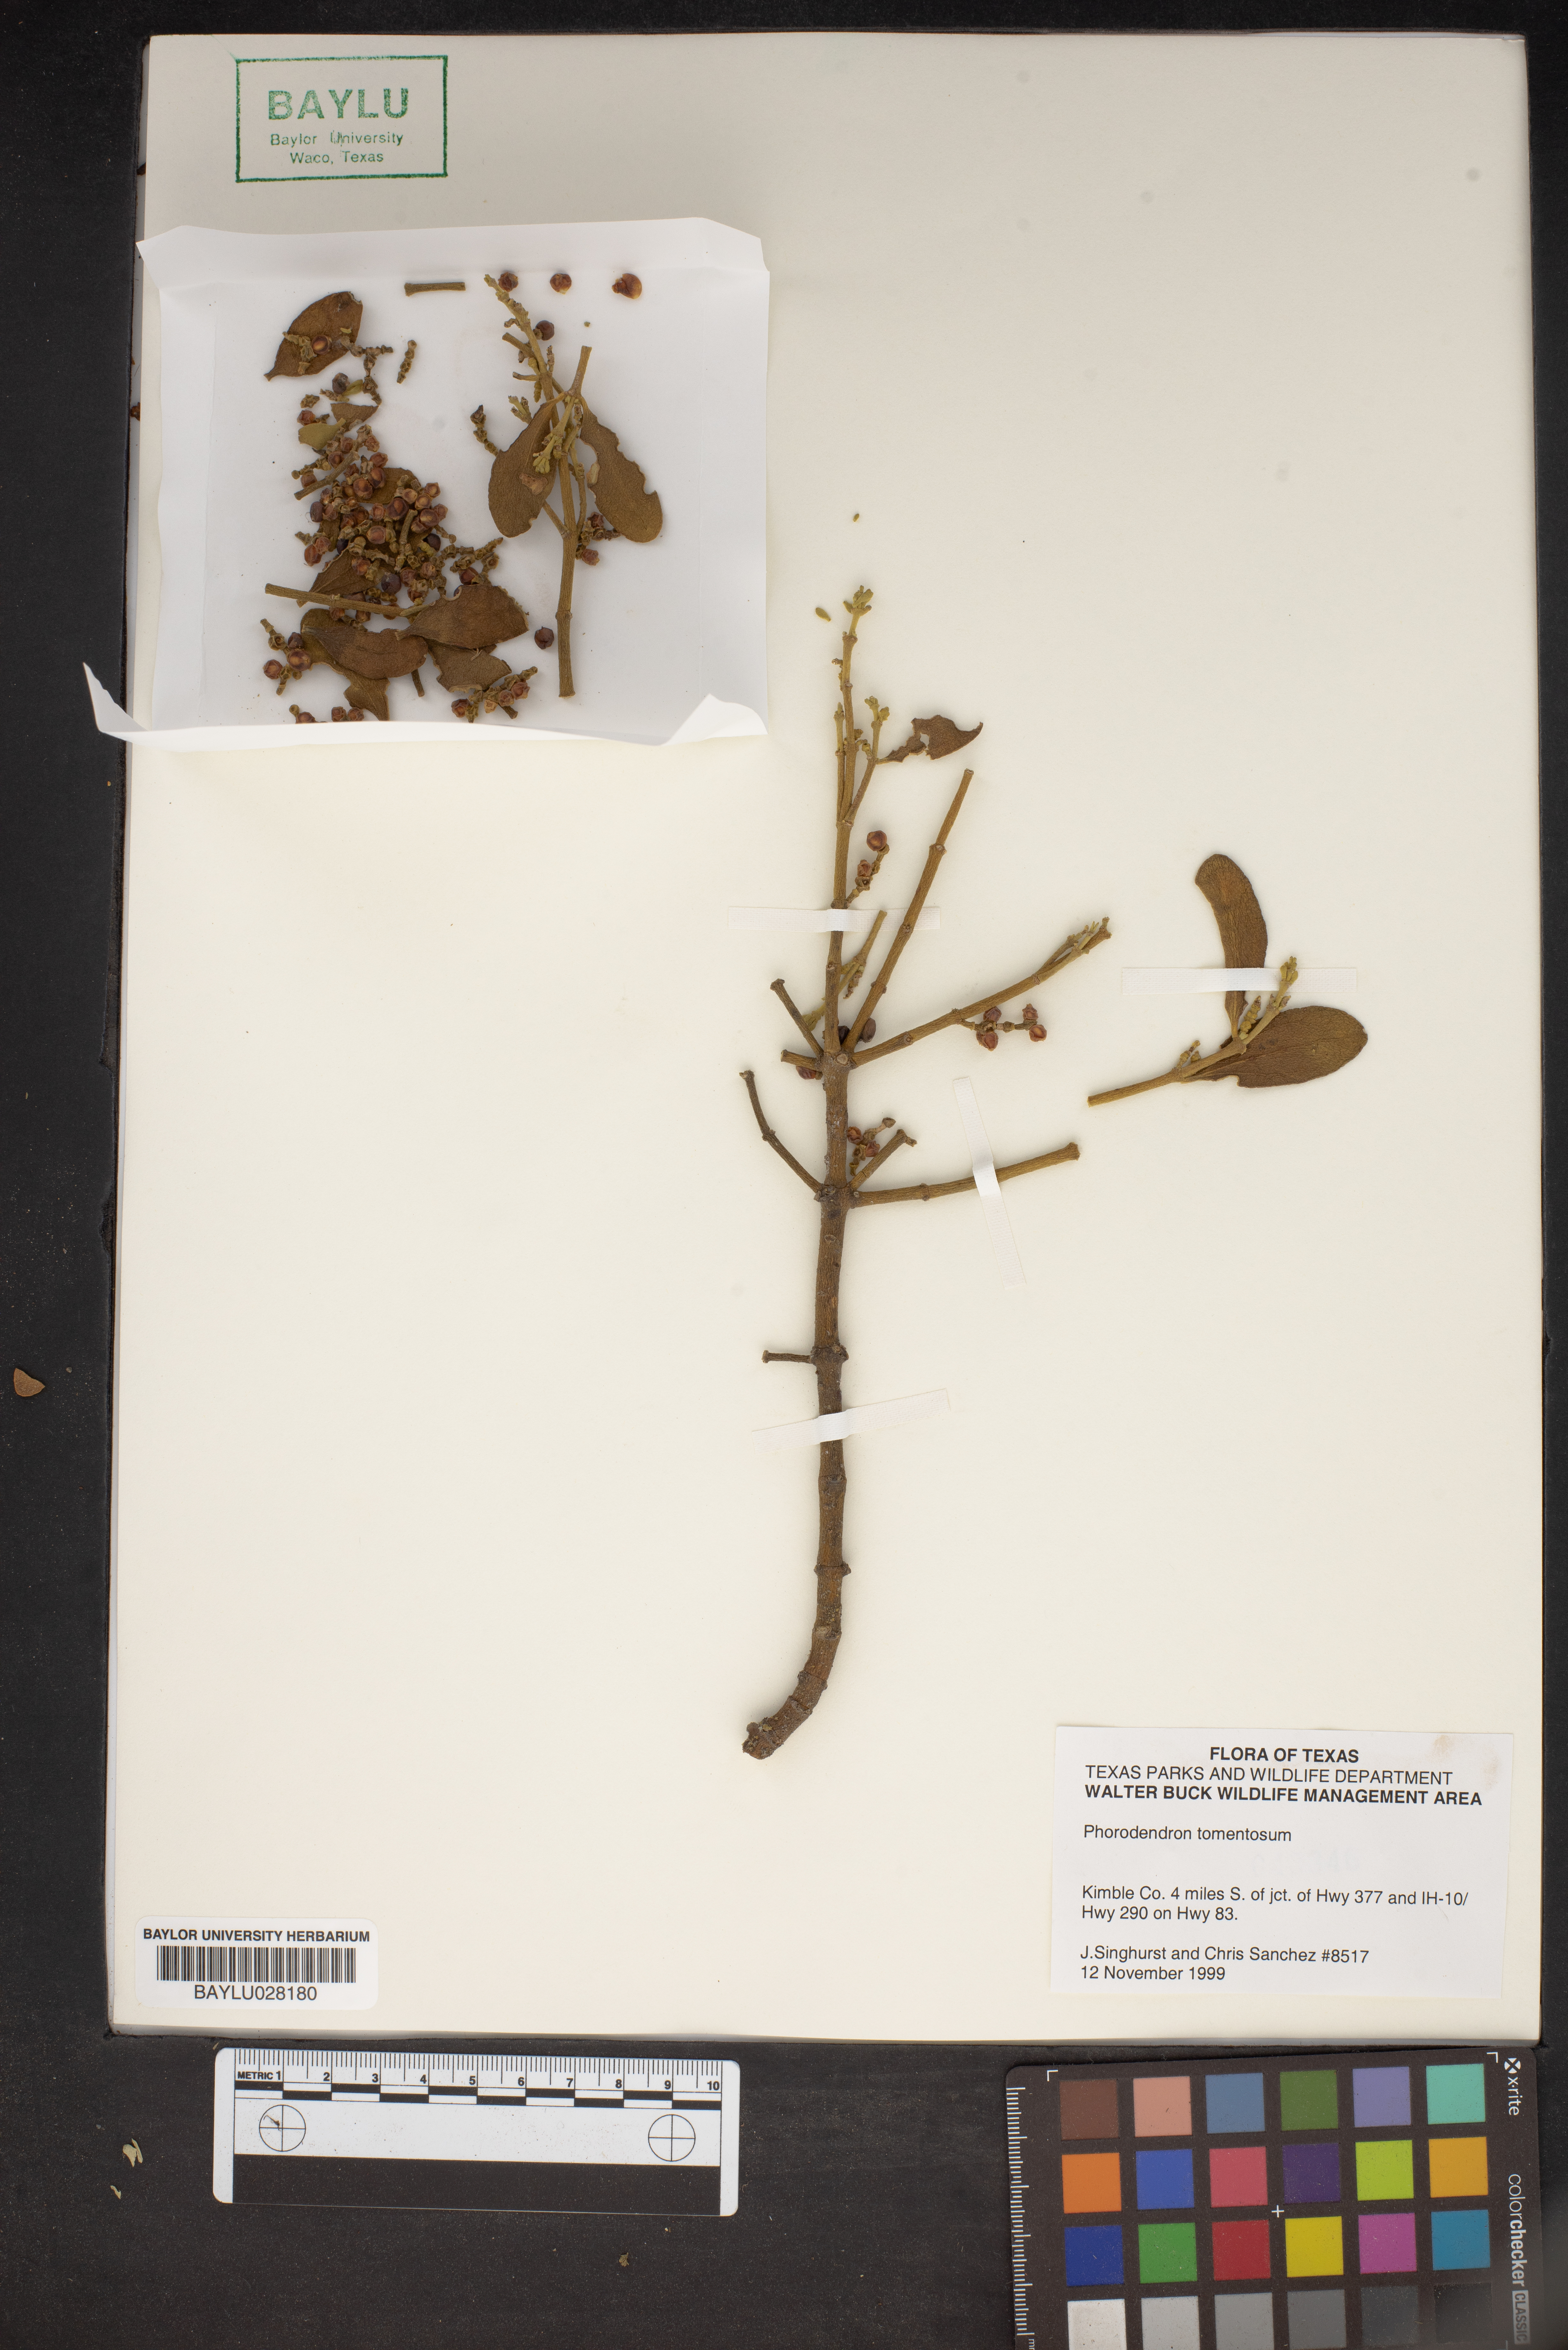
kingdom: Plantae
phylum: Tracheophyta
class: Magnoliopsida
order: Santalales
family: Viscaceae
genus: Phoradendron
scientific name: Phoradendron leucarpum
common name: Pacific mistletoe
